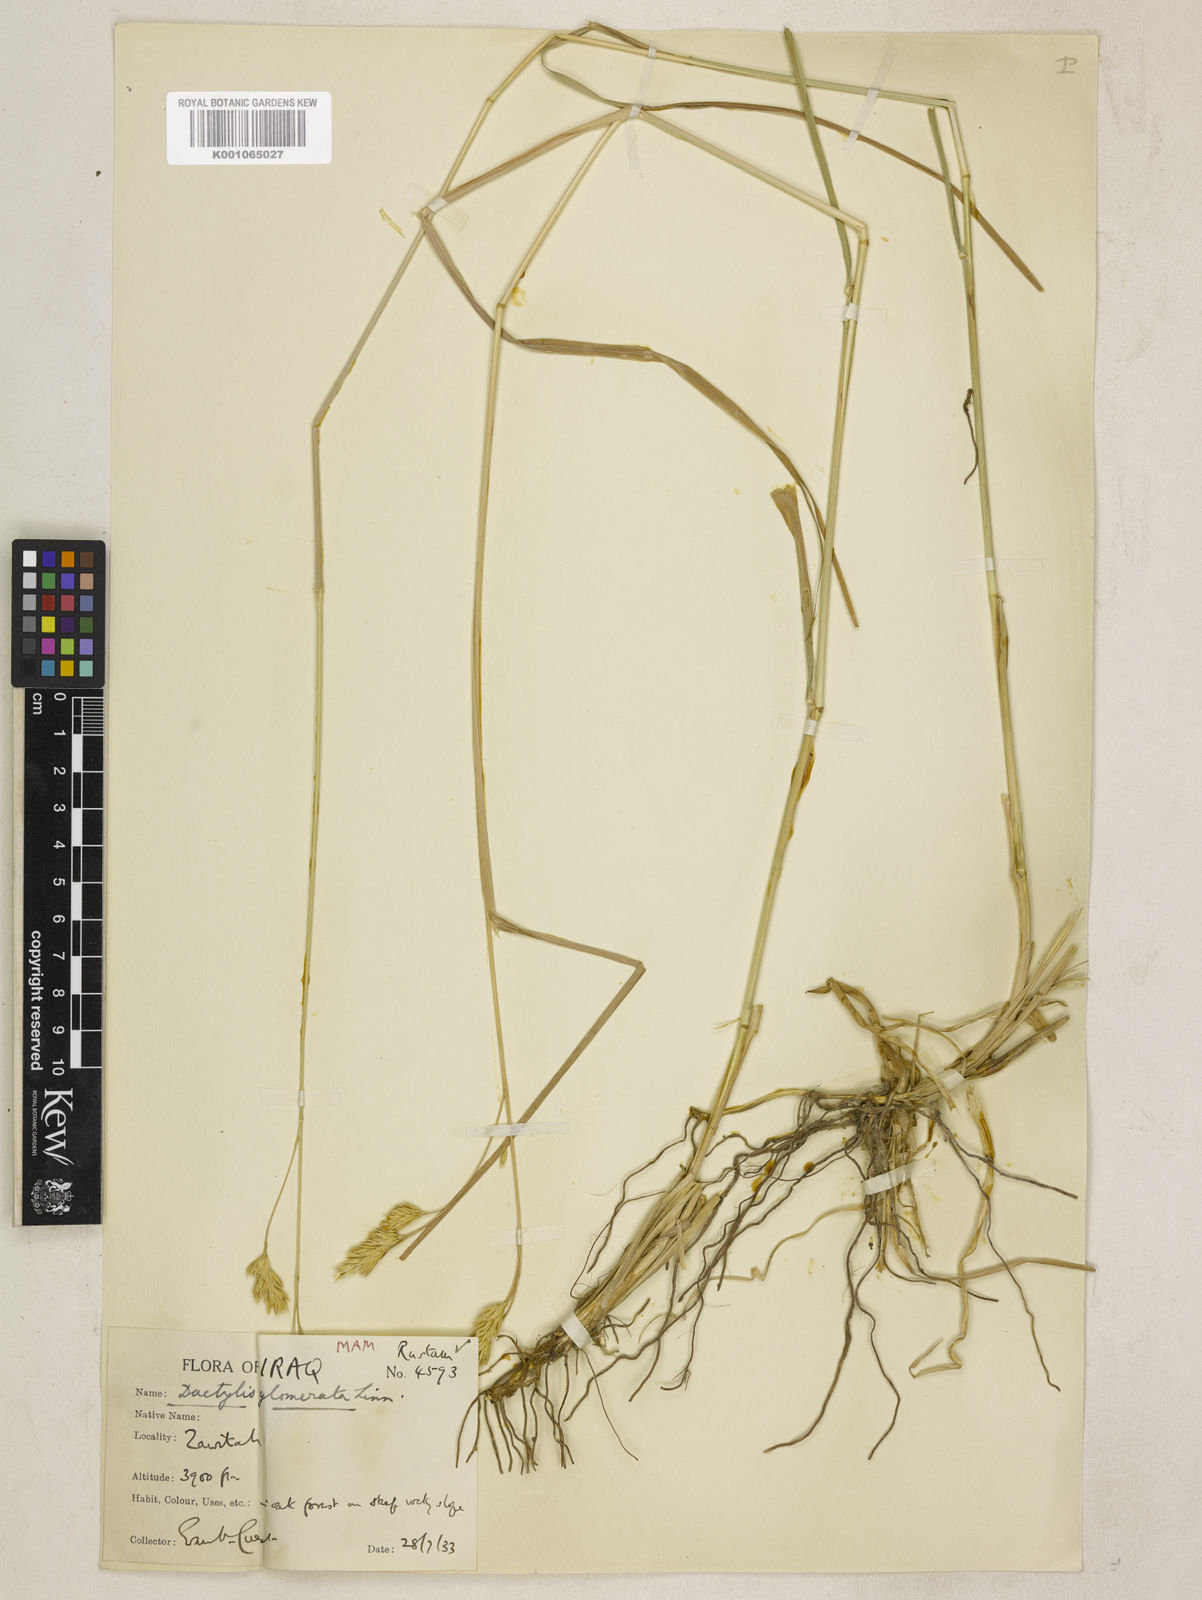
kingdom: Plantae
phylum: Tracheophyta
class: Liliopsida
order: Poales
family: Poaceae
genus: Dactylis
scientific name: Dactylis glomerata
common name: Orchardgrass
